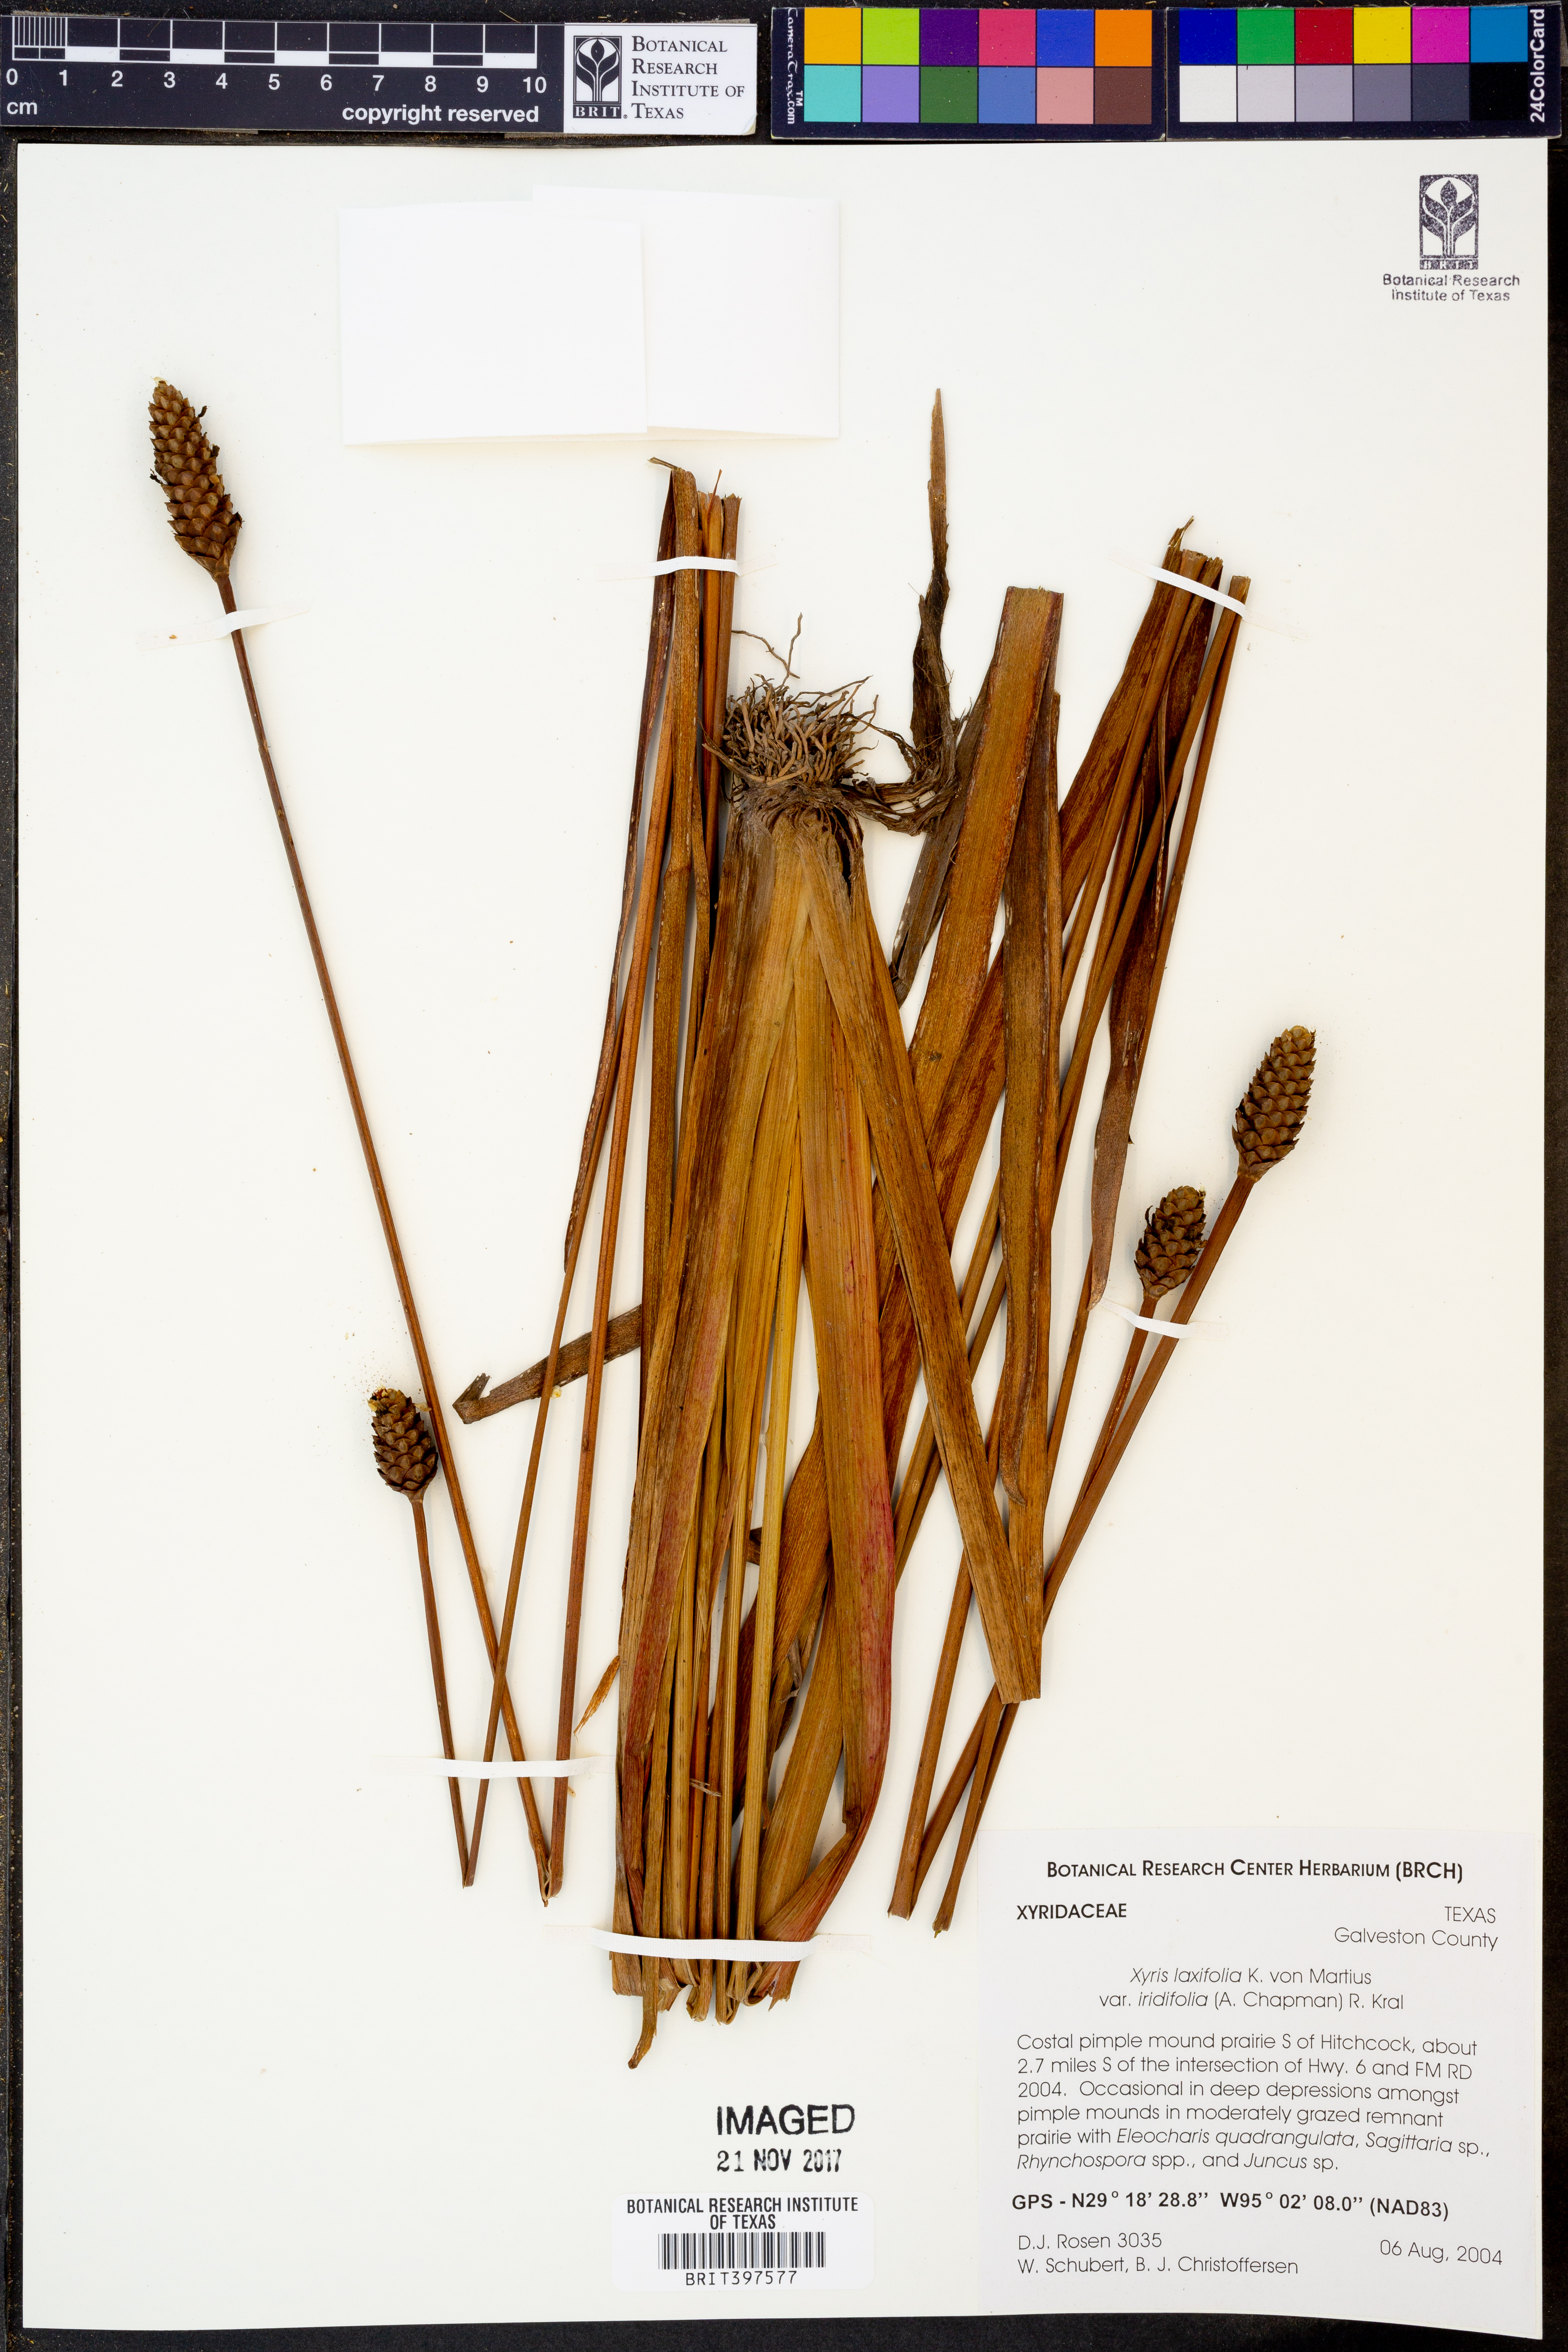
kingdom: Plantae
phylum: Tracheophyta
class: Liliopsida
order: Poales
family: Xyridaceae
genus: Xyris
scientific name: Xyris laxifolia
